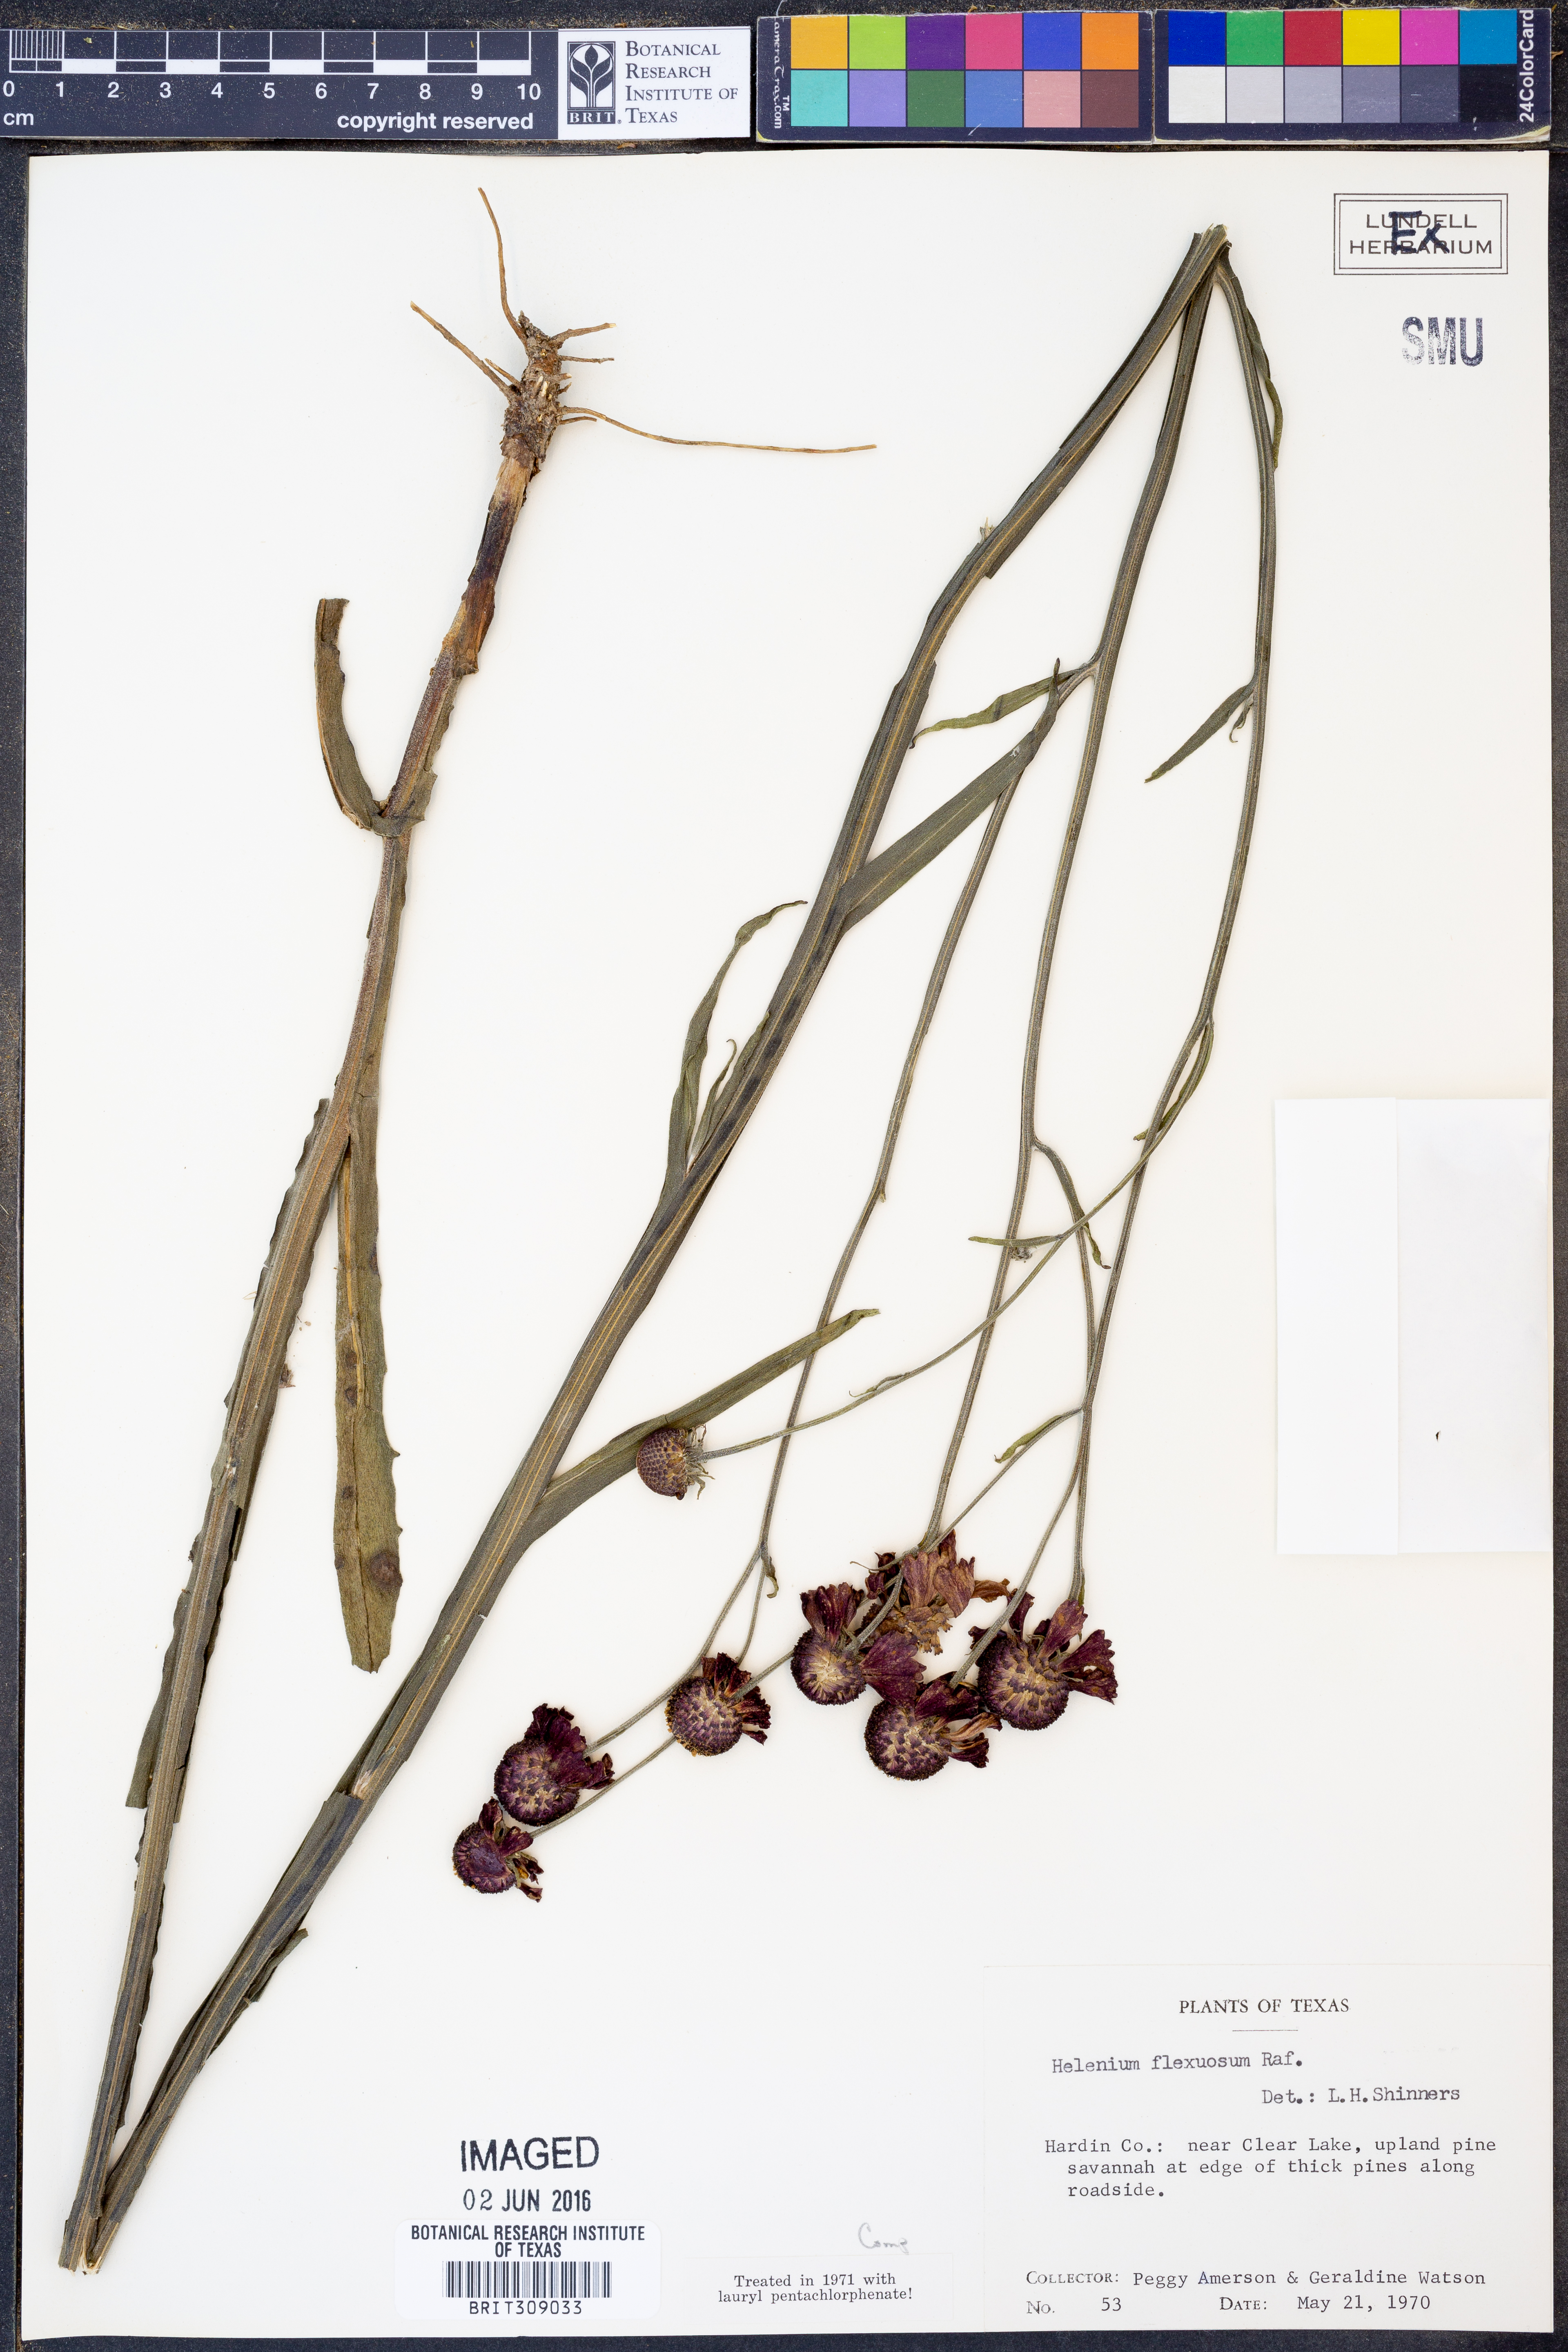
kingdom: Plantae
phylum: Tracheophyta
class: Magnoliopsida
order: Asterales
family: Asteraceae
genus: Helenium
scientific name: Helenium flexuosum
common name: Naked-flowered sneezeweed
